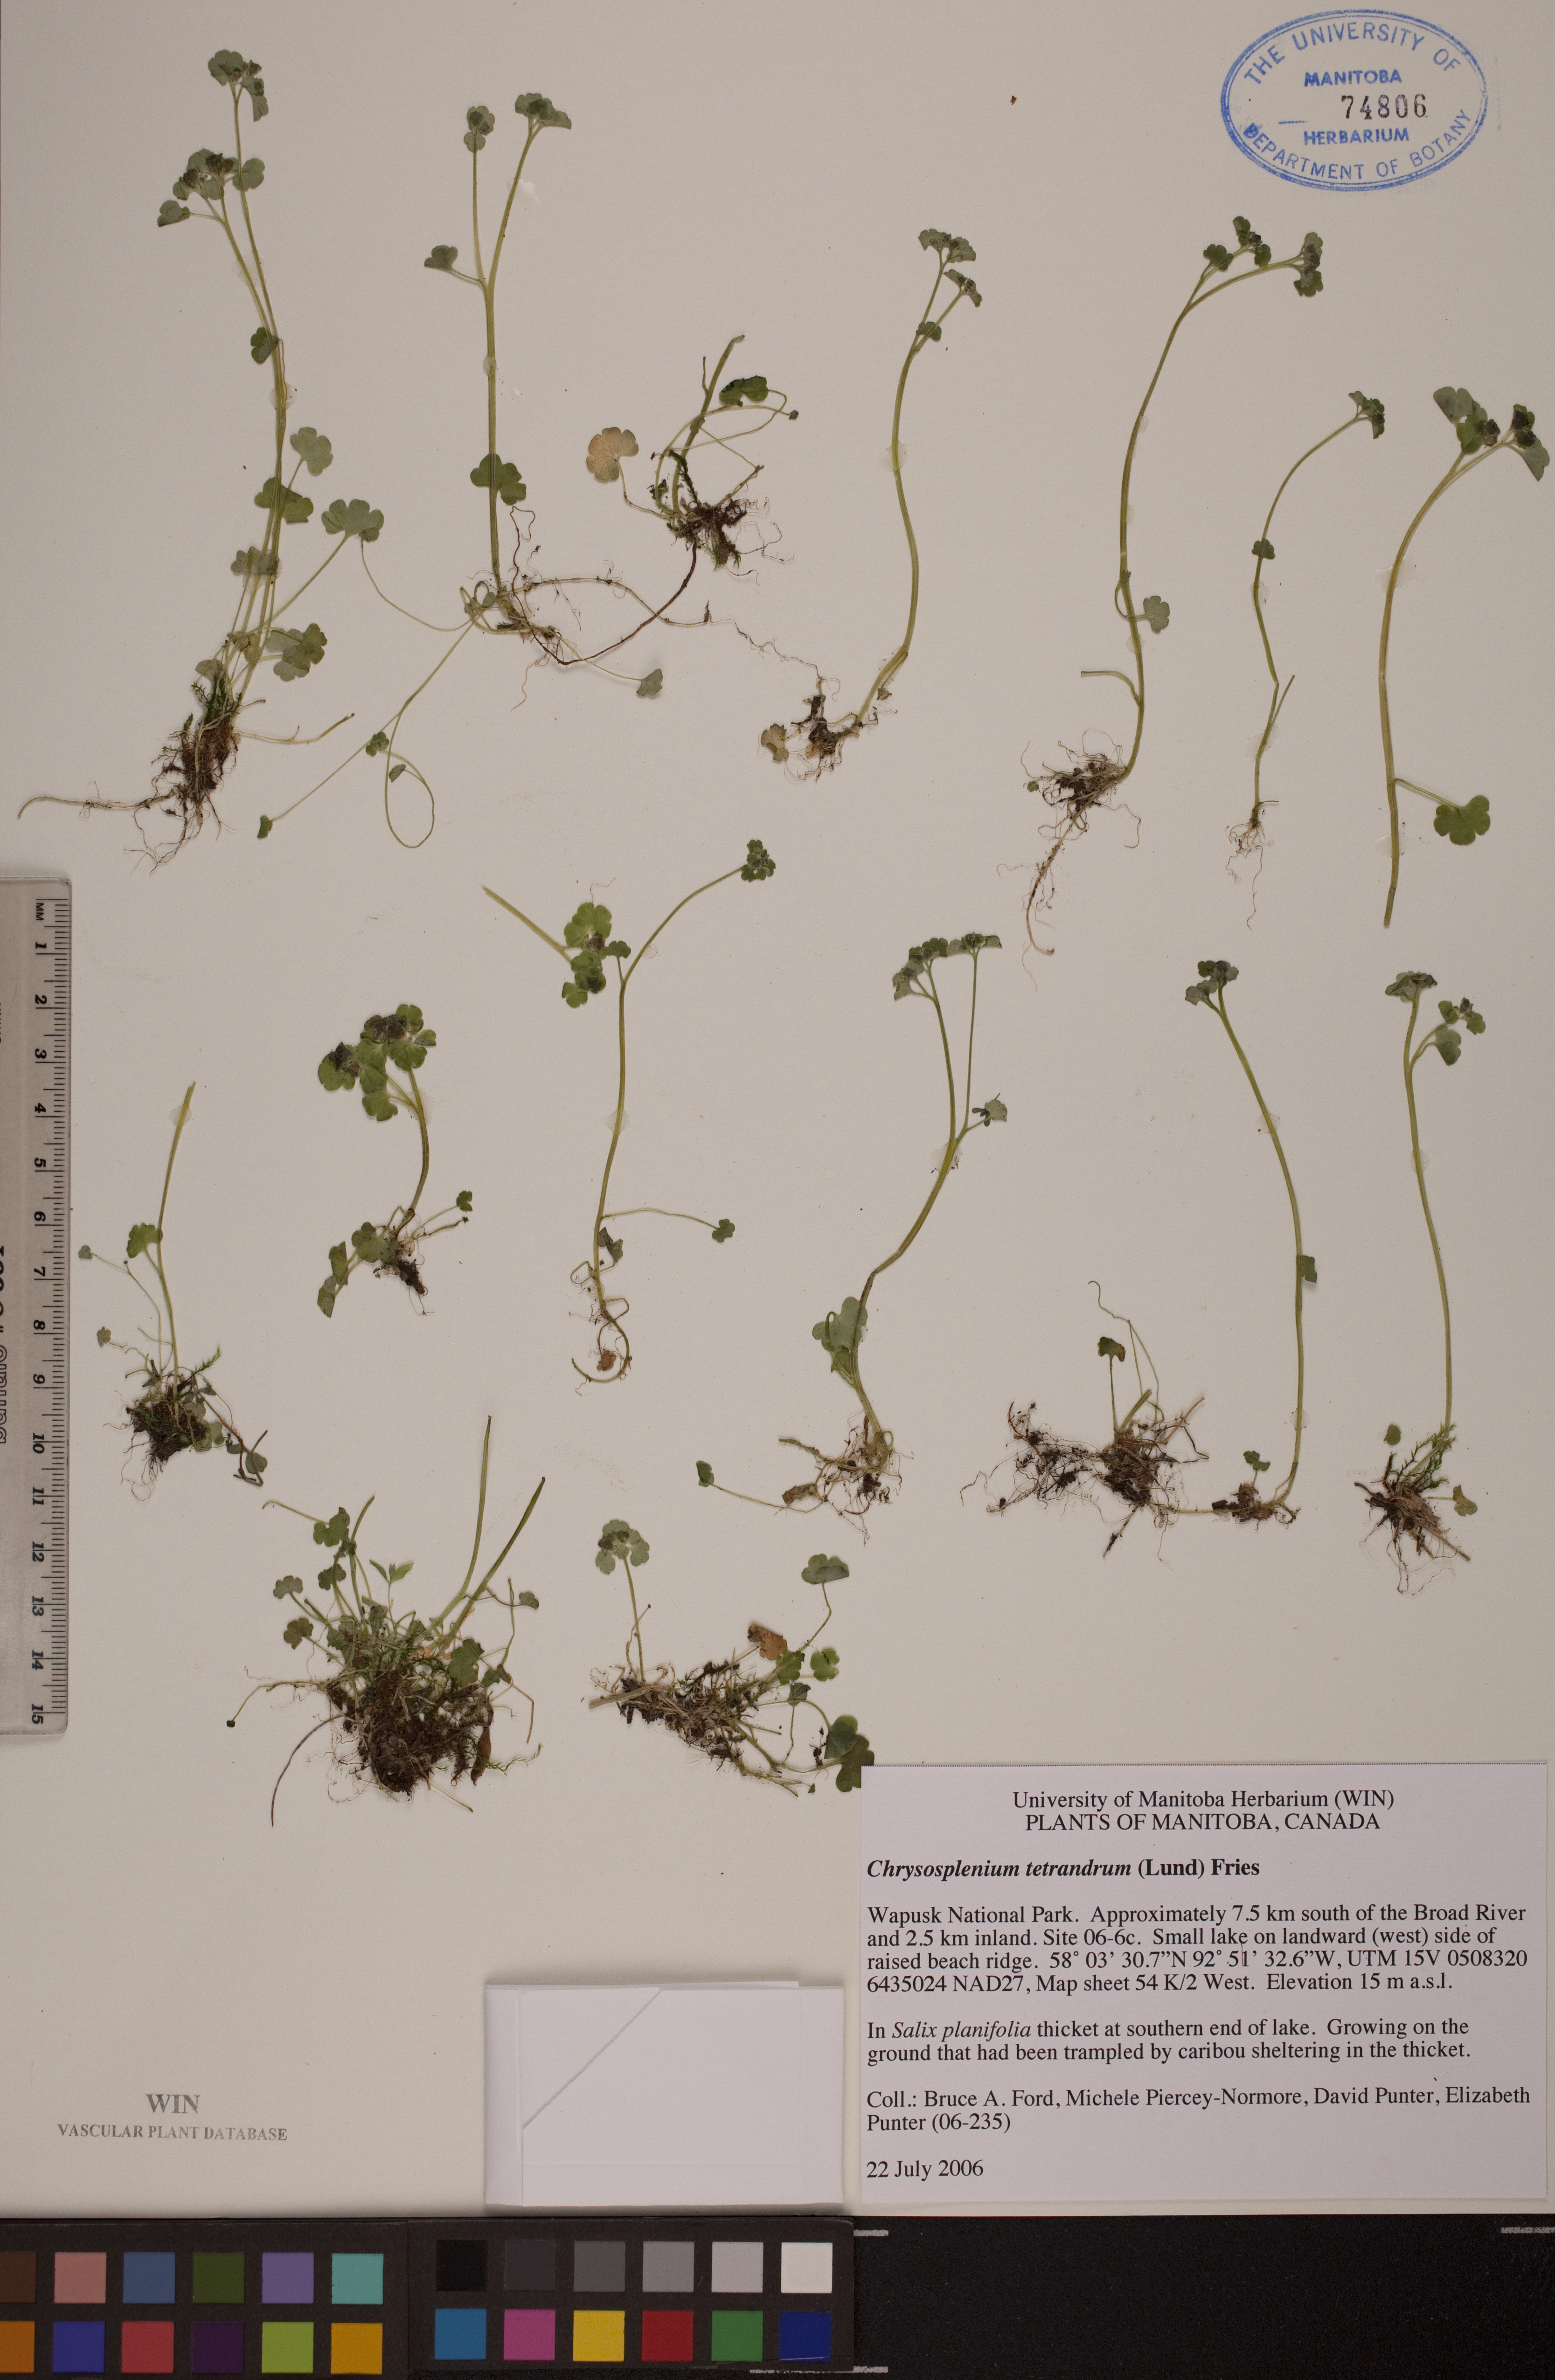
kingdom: Plantae
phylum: Tracheophyta
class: Magnoliopsida
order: Saxifragales
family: Saxifragaceae
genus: Chrysosplenium
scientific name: Chrysosplenium tetrandrum
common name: Green saxifrage
